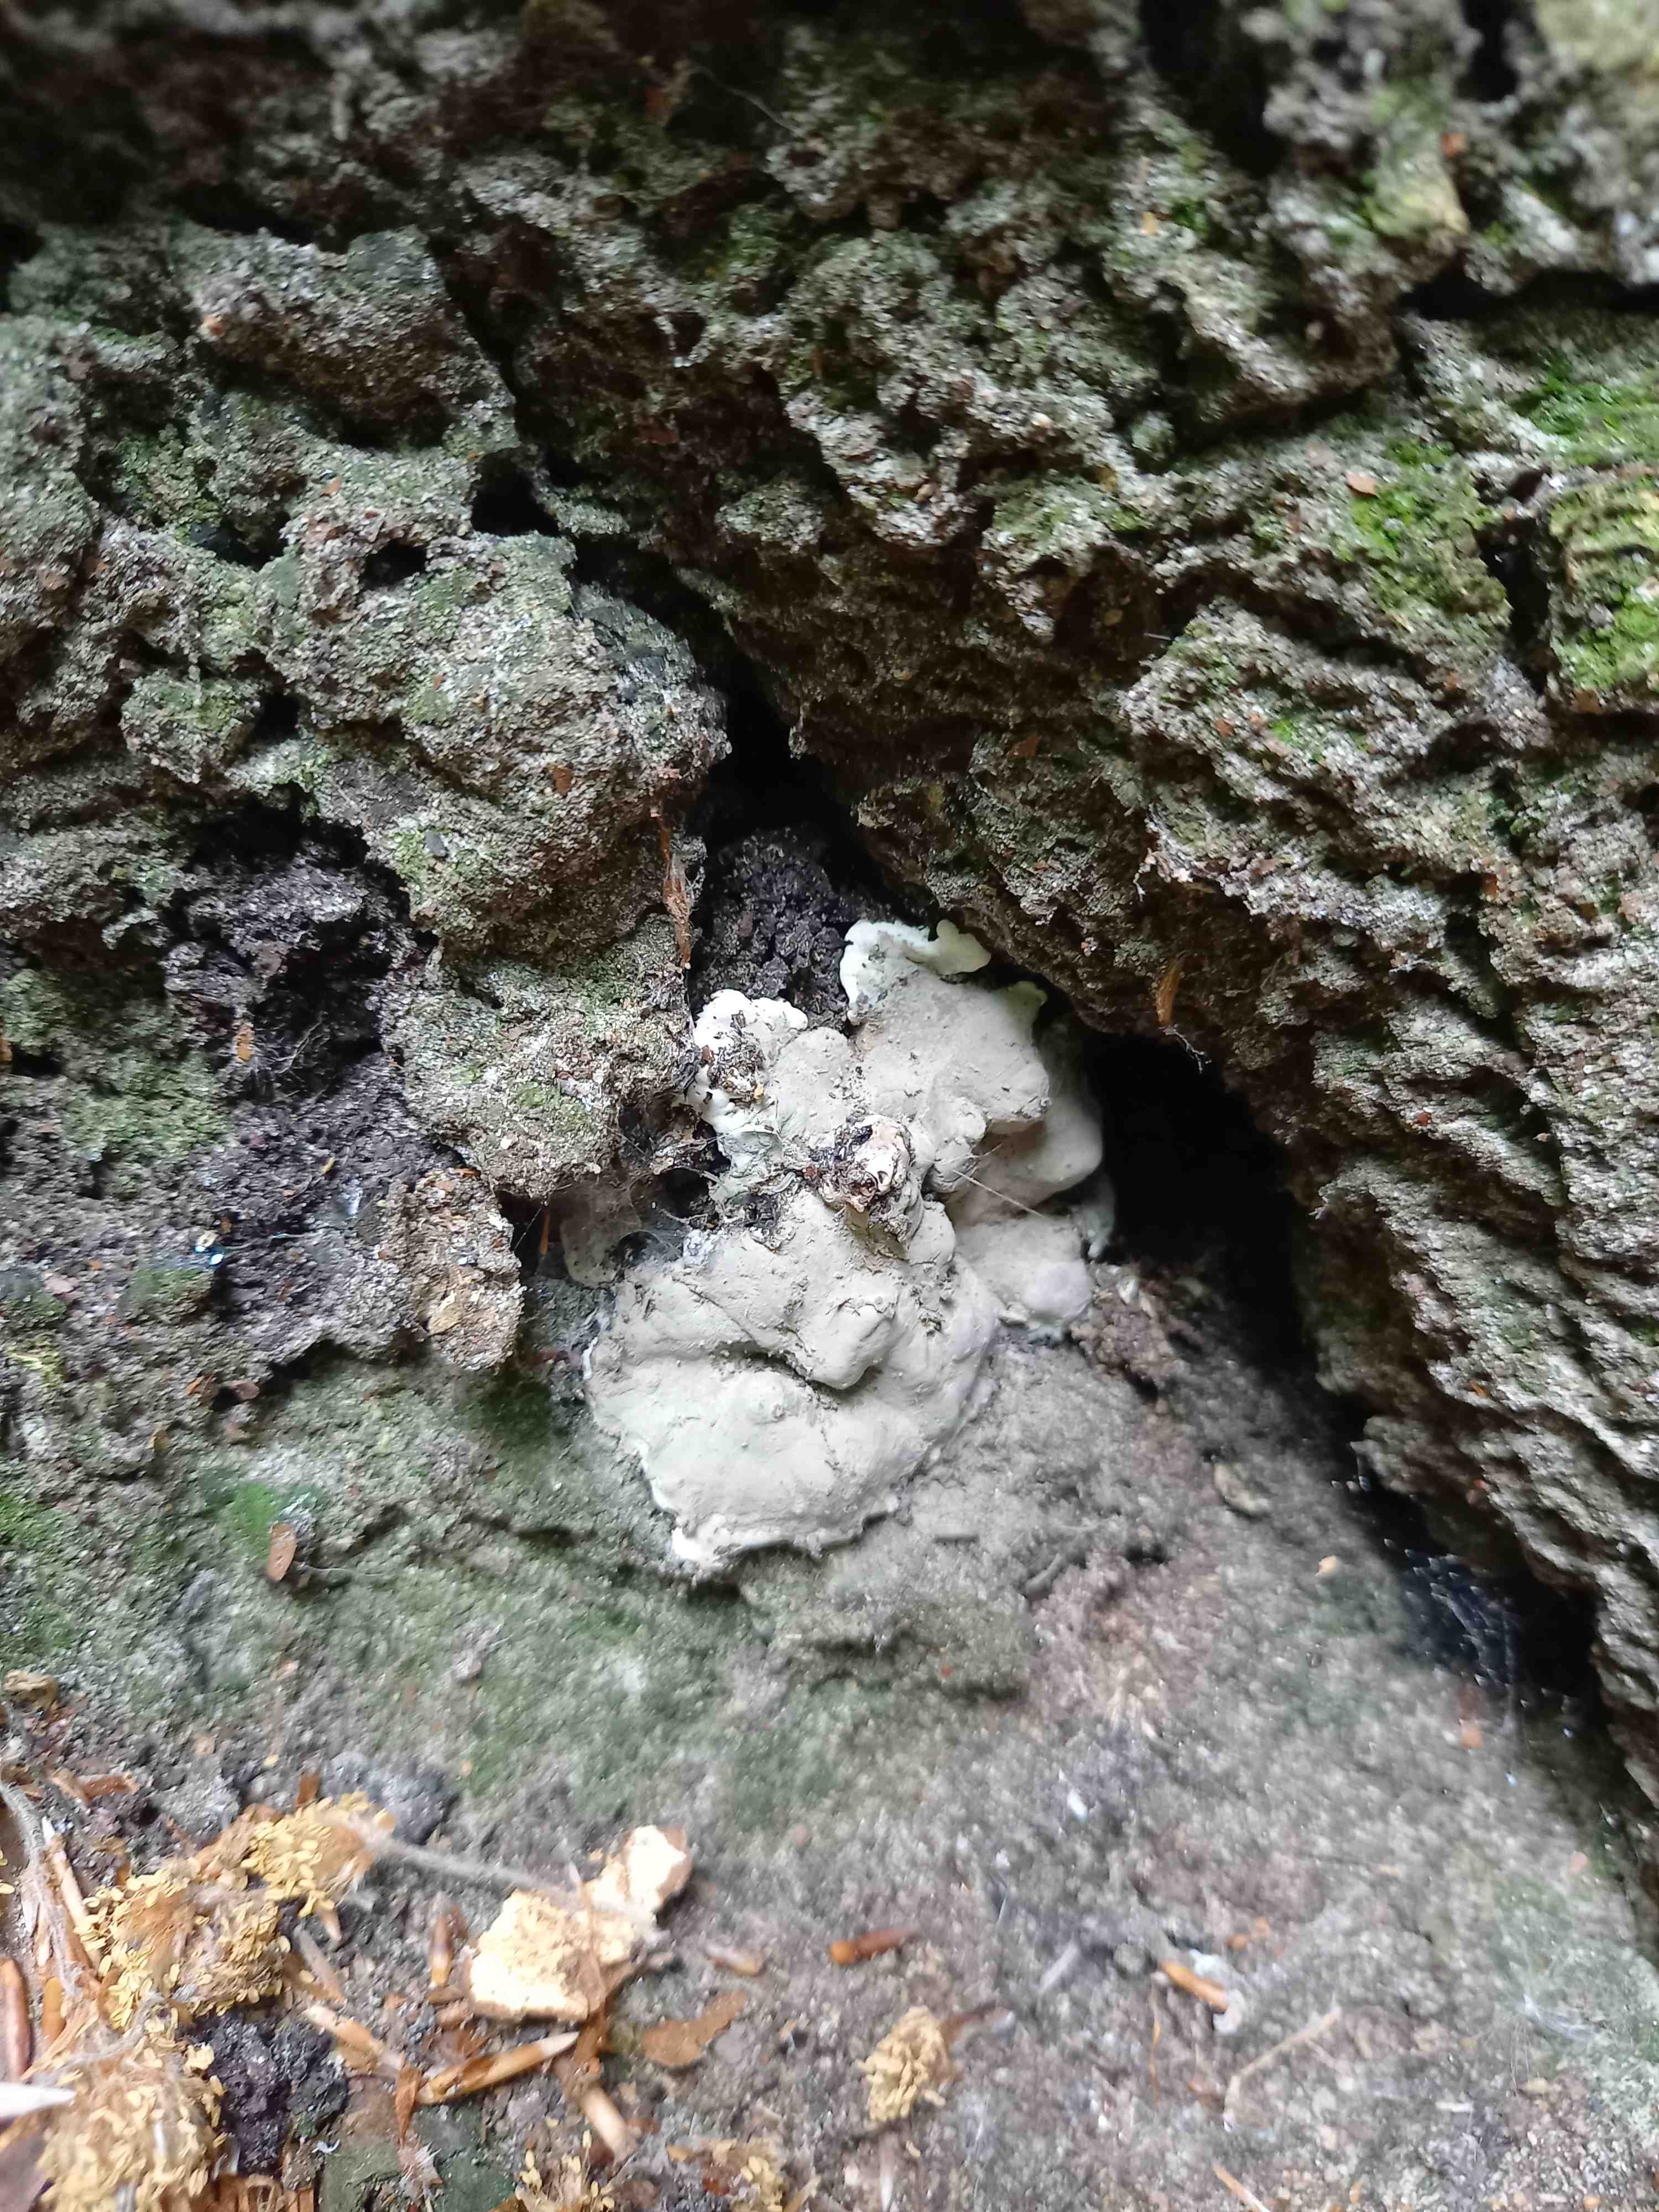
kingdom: Fungi
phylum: Ascomycota
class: Sordariomycetes
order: Xylariales
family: Xylariaceae
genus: Kretzschmaria
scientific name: Kretzschmaria deusta
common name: stor kulsvamp
